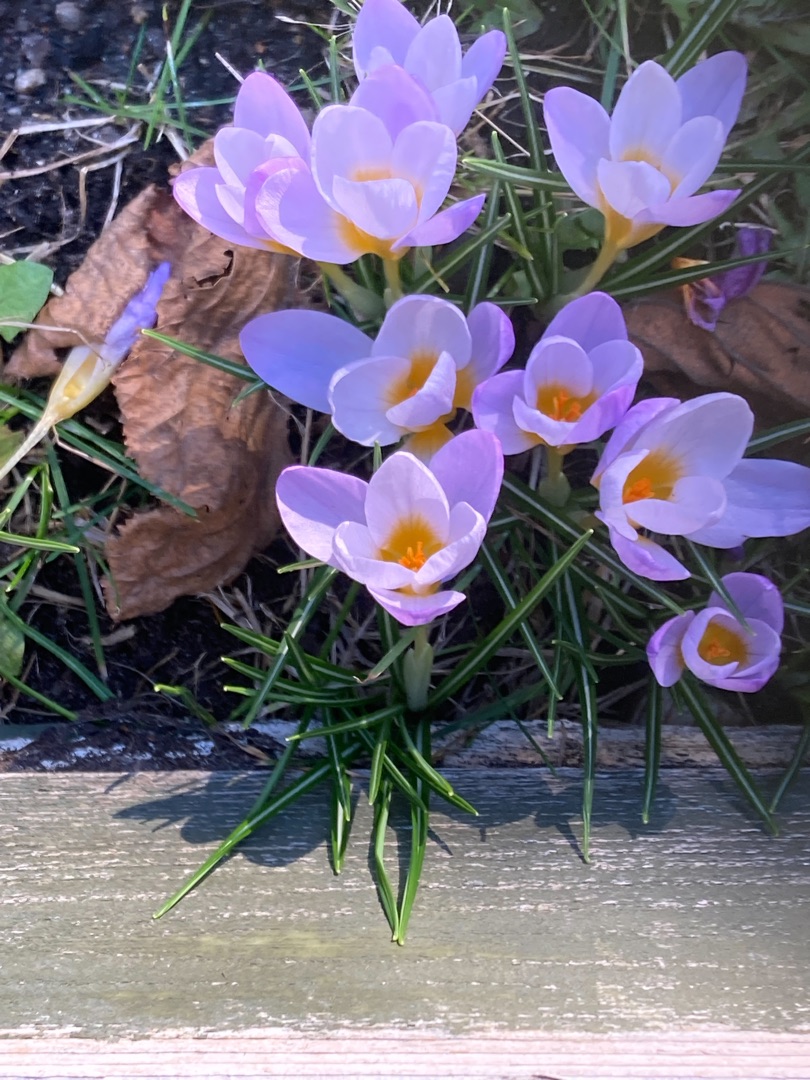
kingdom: Plantae
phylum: Tracheophyta
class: Liliopsida
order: Asparagales
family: Iridaceae
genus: Crocus
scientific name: Crocus sieberi
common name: Græsk krokus
